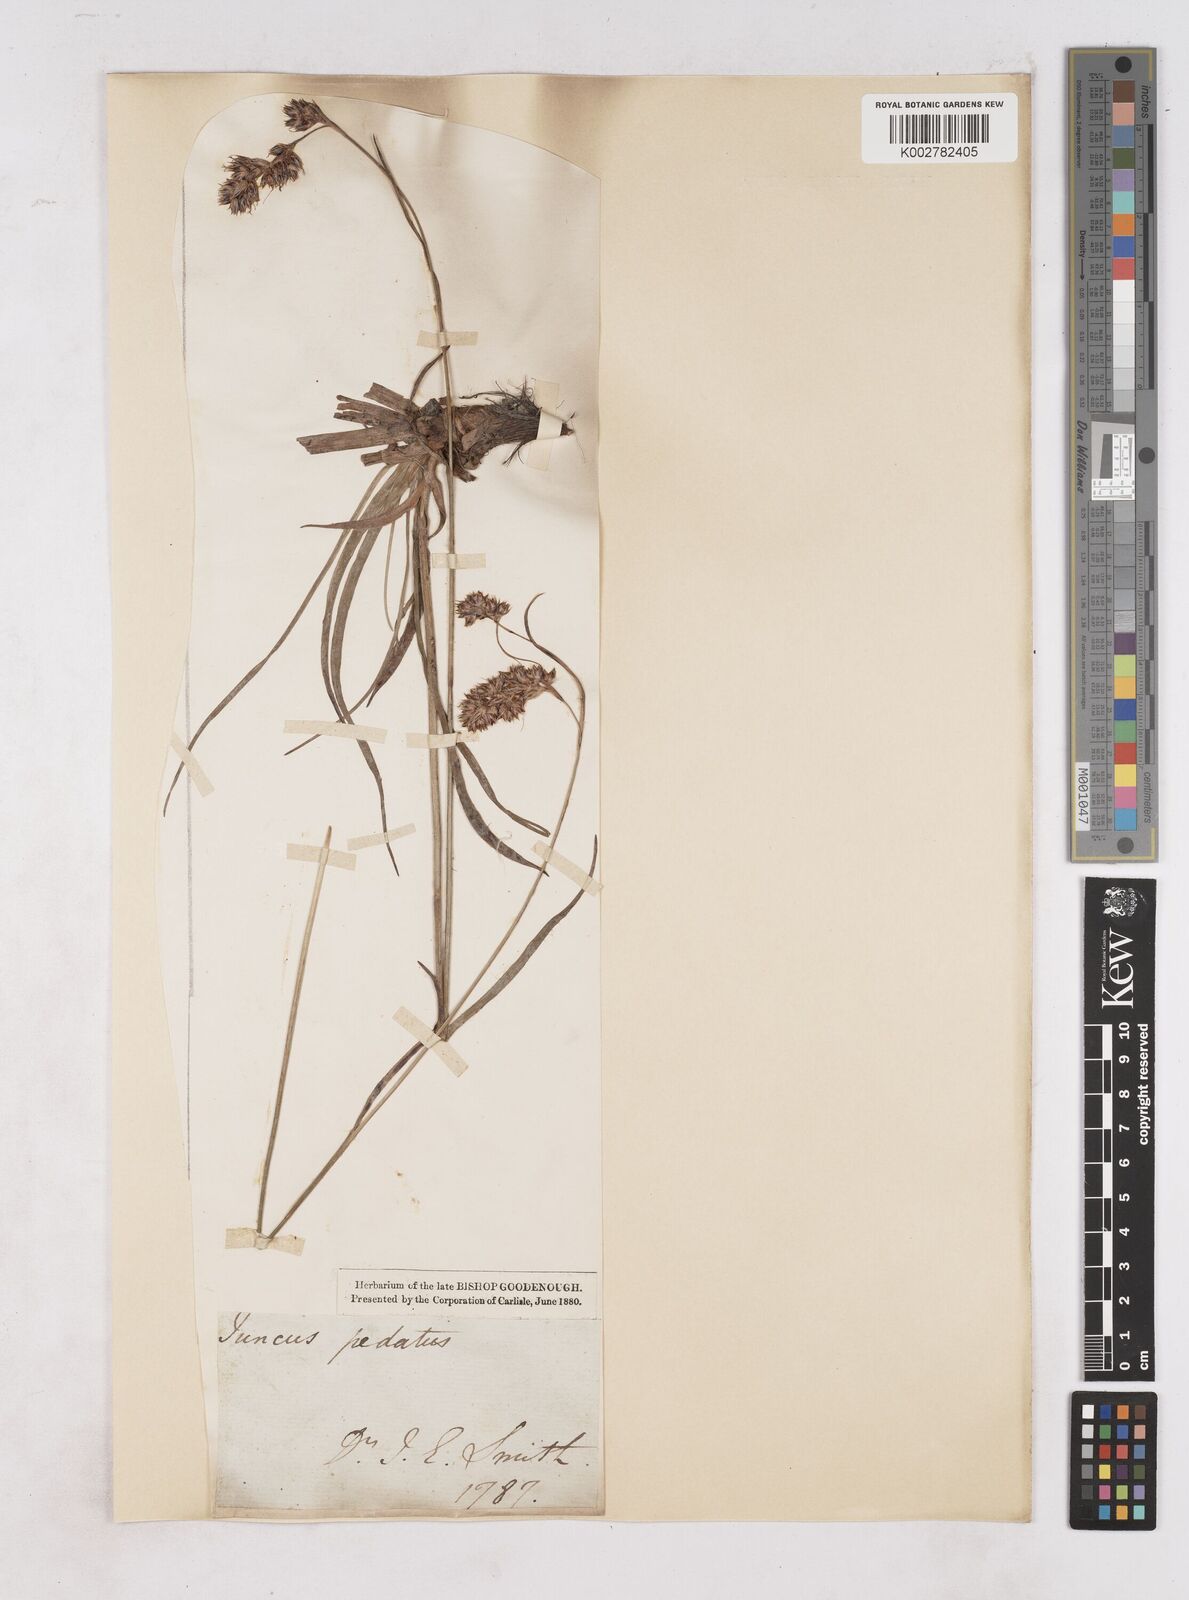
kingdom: Plantae
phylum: Tracheophyta
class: Liliopsida
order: Poales
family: Juncaceae
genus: Luzula
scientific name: Luzula pediformis
